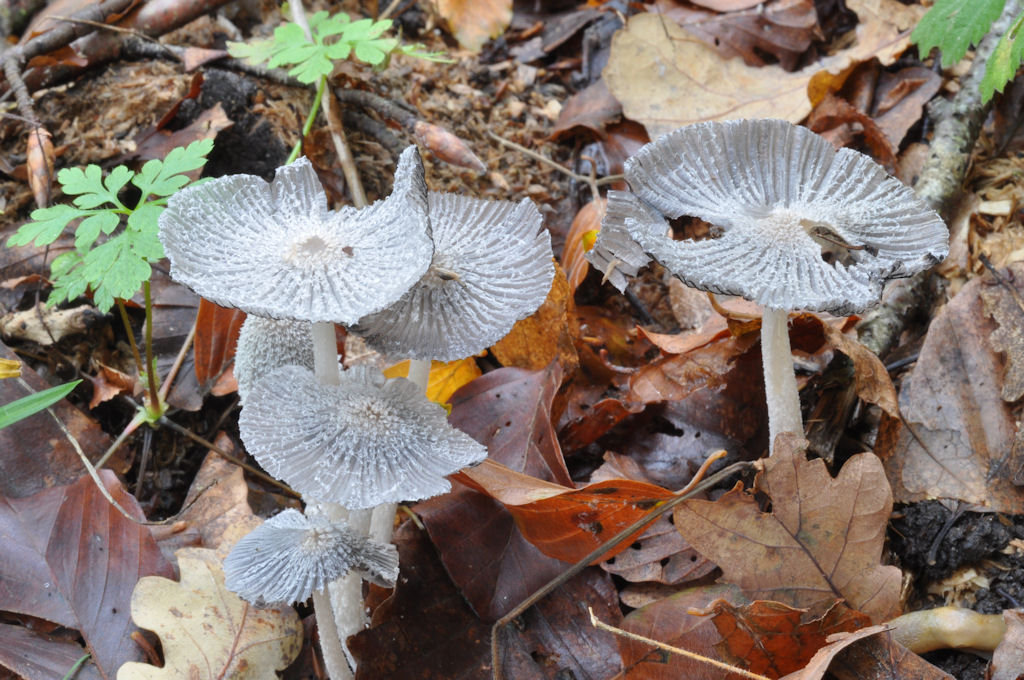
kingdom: Fungi
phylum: Basidiomycota
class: Agaricomycetes
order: Agaricales
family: Psathyrellaceae
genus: Coprinopsis
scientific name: Coprinopsis lagopus
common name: dunstokket blækhat
